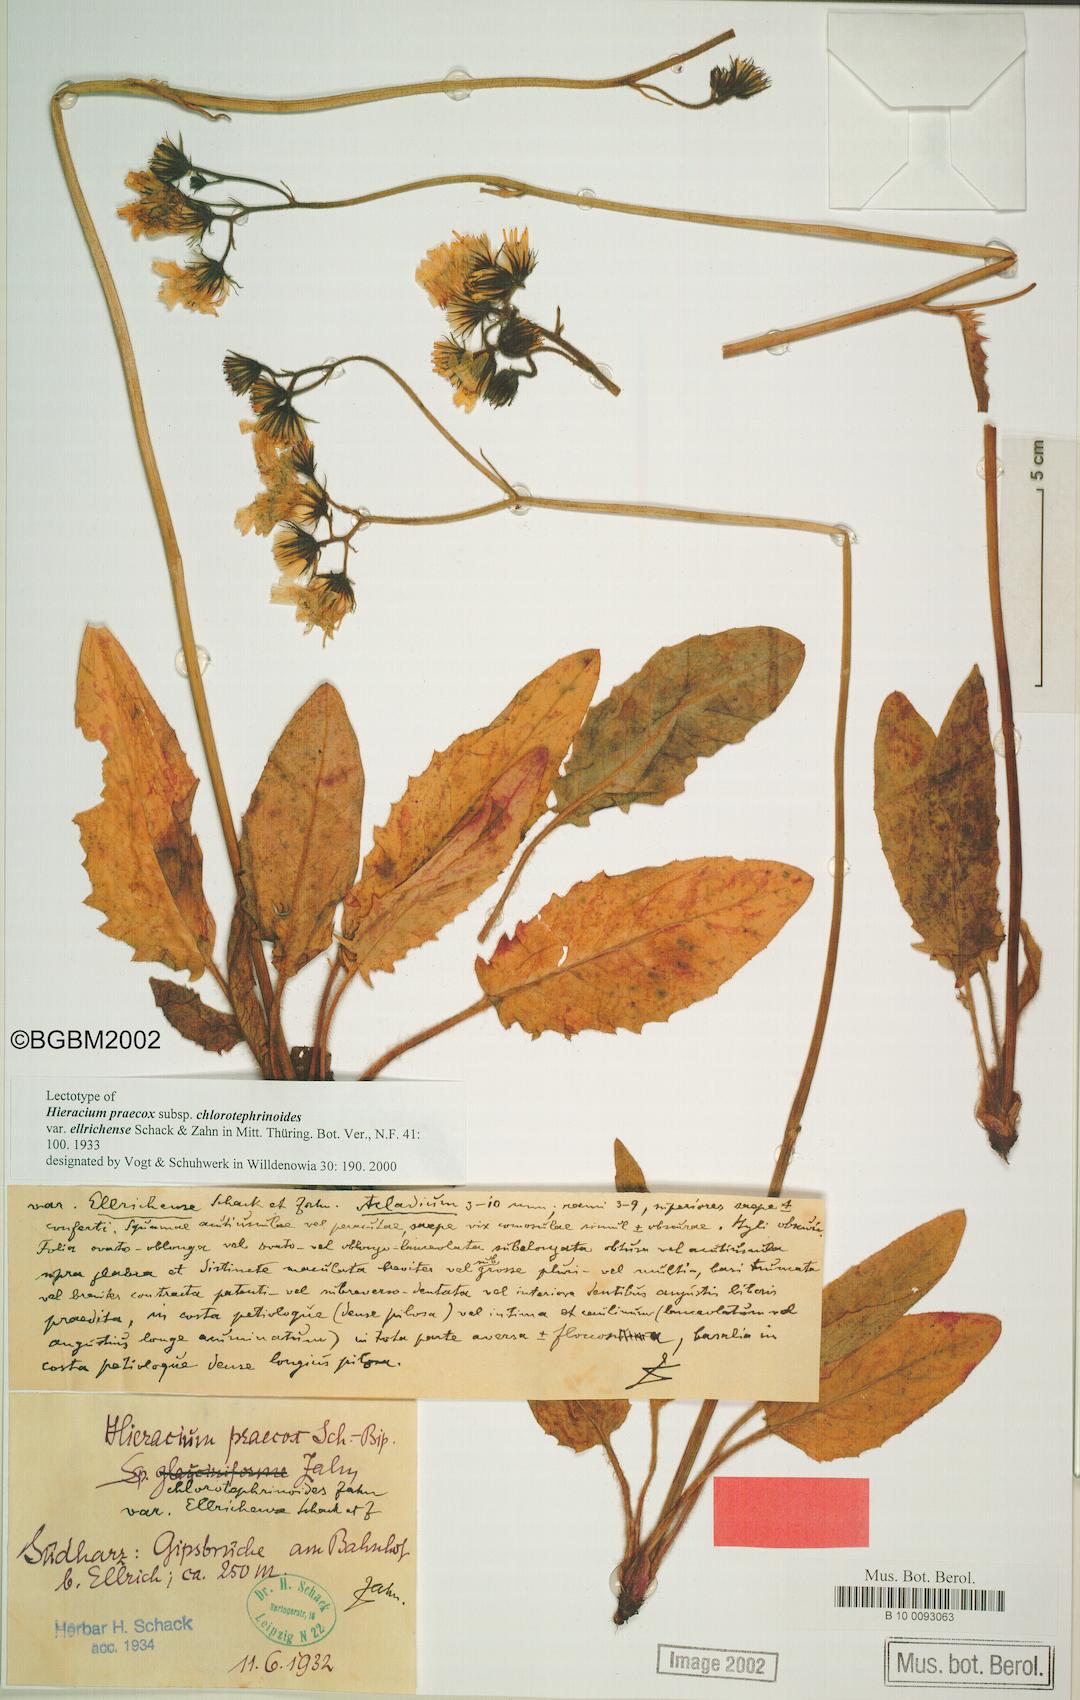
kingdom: Plantae
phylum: Tracheophyta
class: Magnoliopsida
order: Asterales
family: Asteraceae
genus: Hieracium
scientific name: Hieracium praecox
